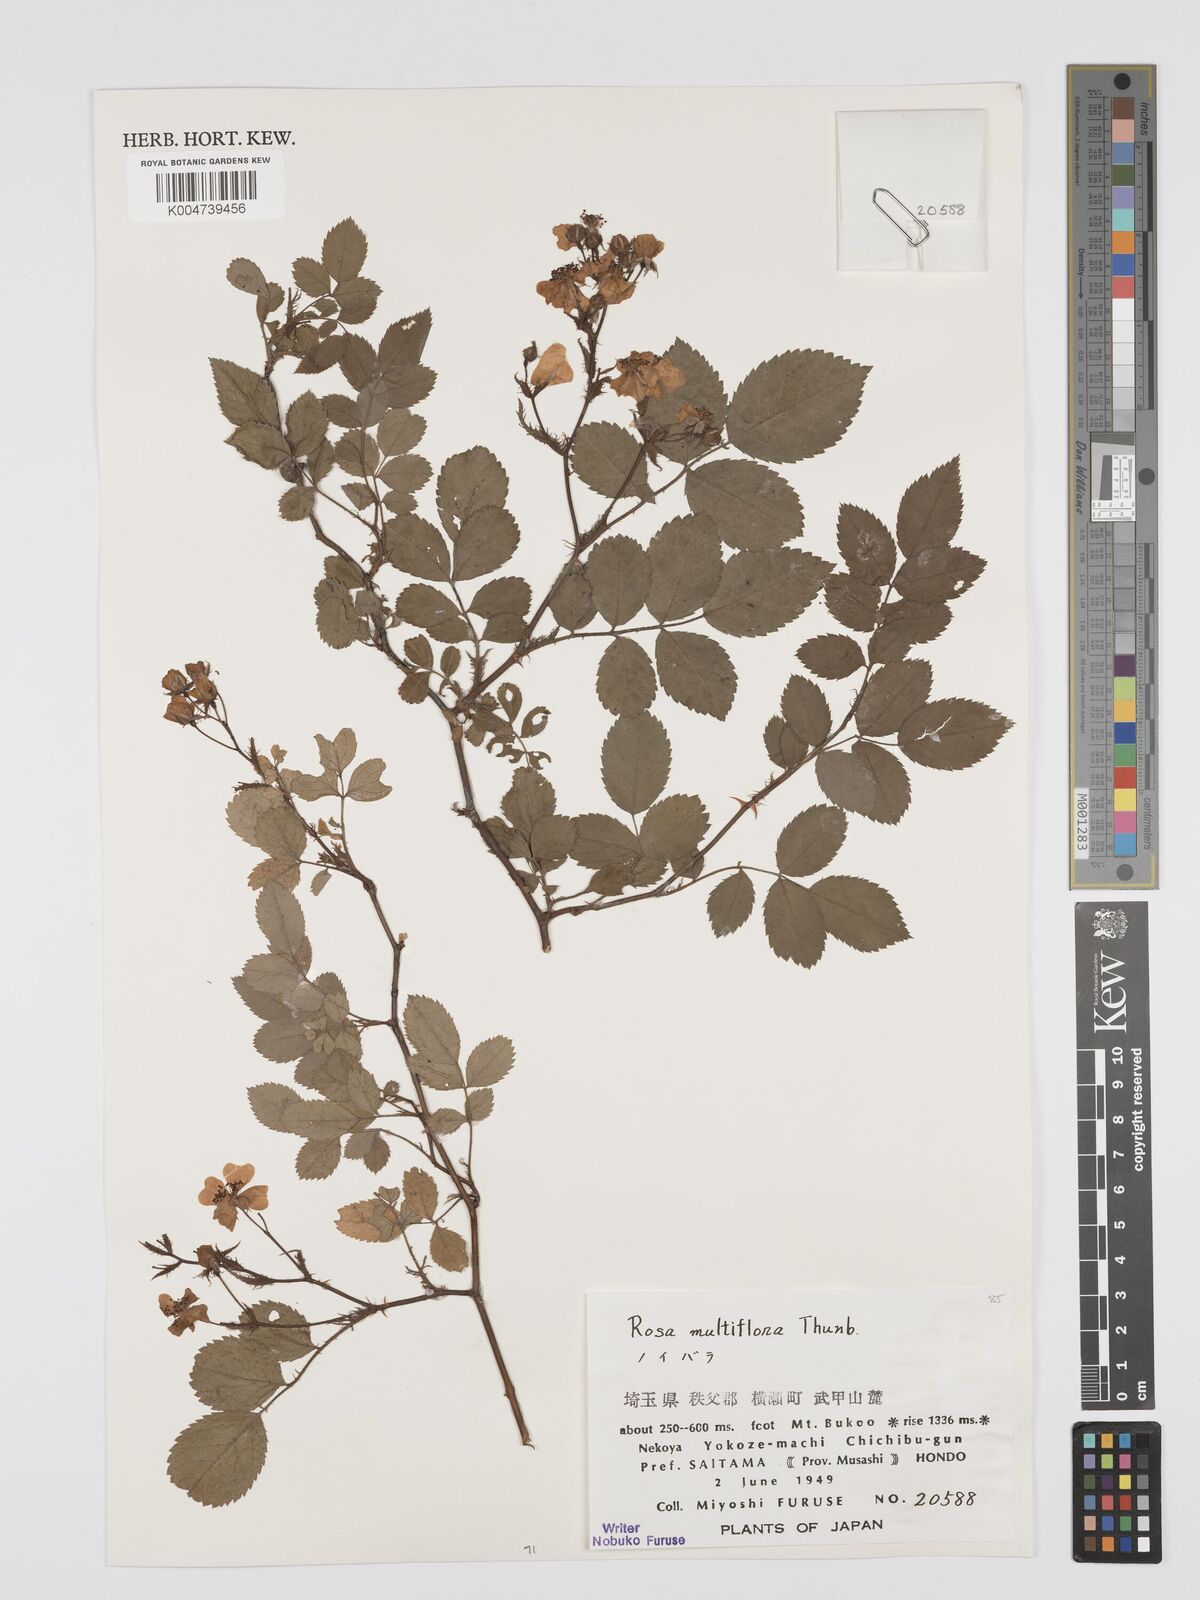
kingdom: Plantae
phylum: Tracheophyta
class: Magnoliopsida
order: Rosales
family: Rosaceae
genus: Rosa
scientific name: Rosa
